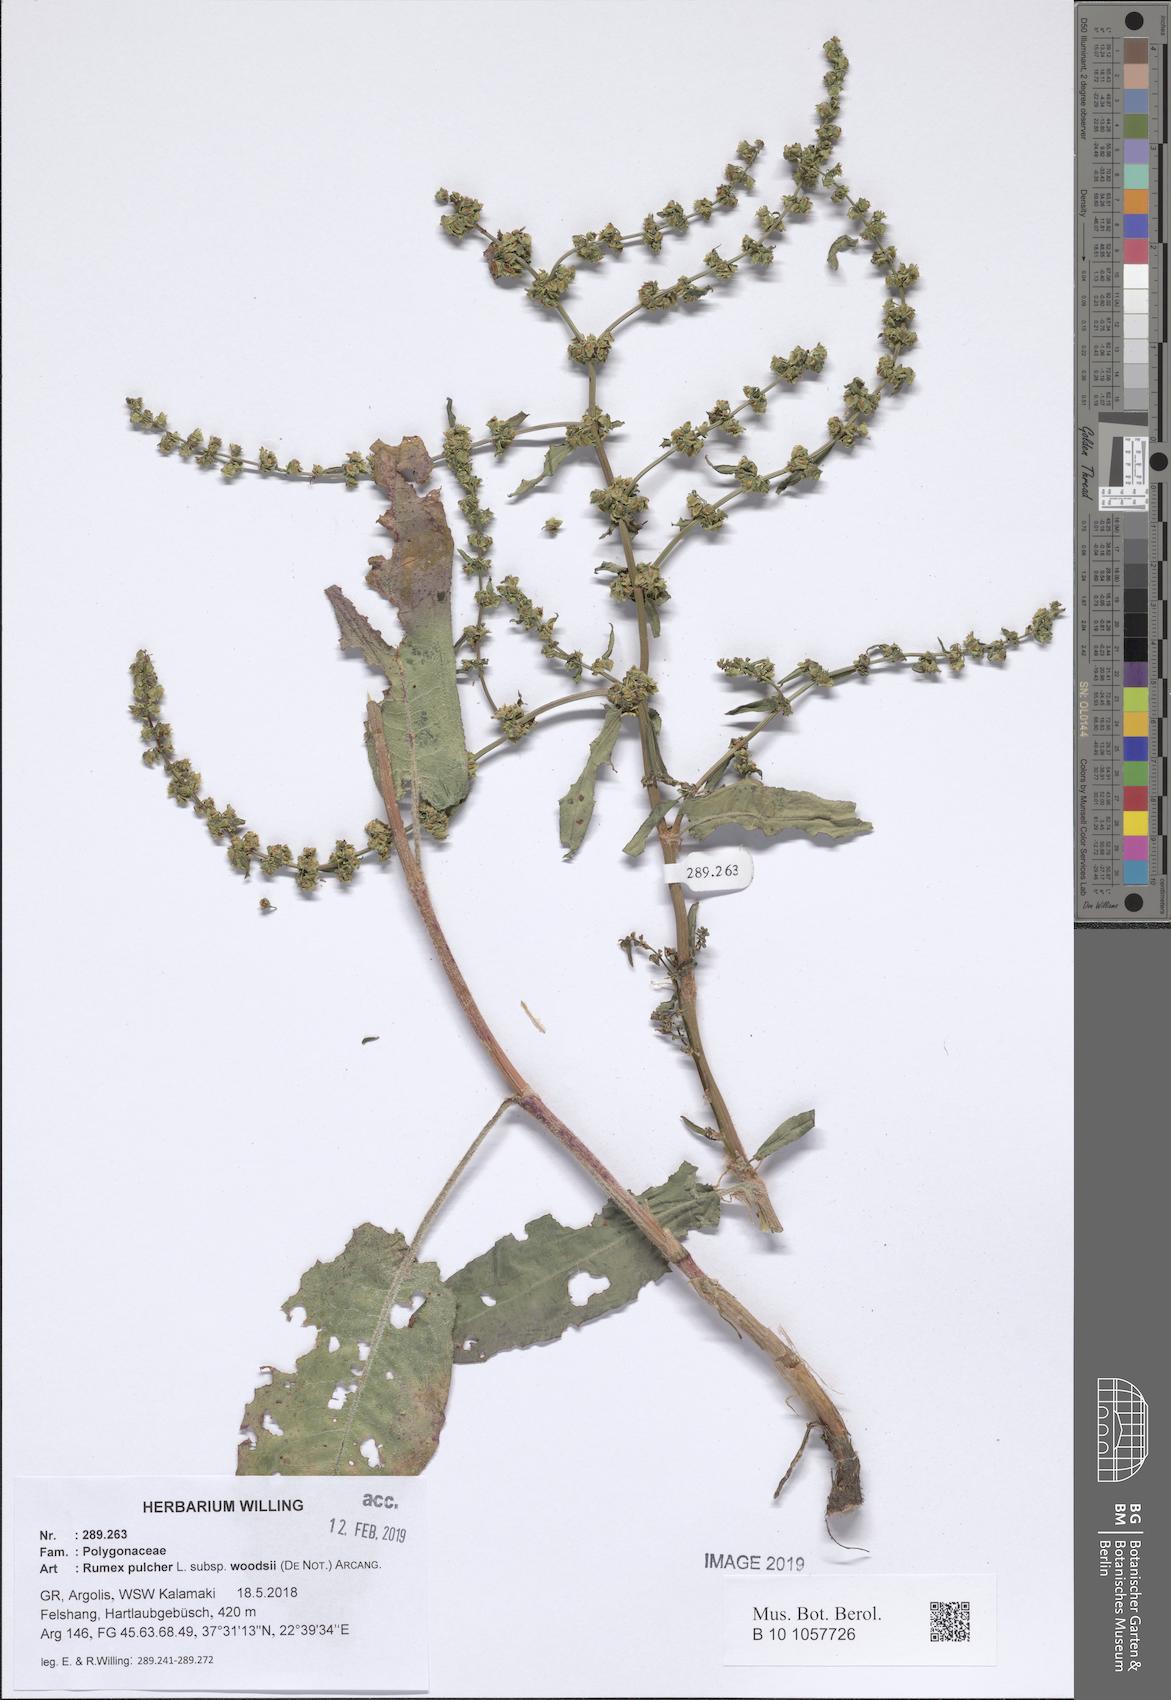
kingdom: Plantae
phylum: Tracheophyta
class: Magnoliopsida
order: Caryophyllales
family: Polygonaceae
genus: Rumex
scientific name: Rumex pulcher
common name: Fiddle dock
